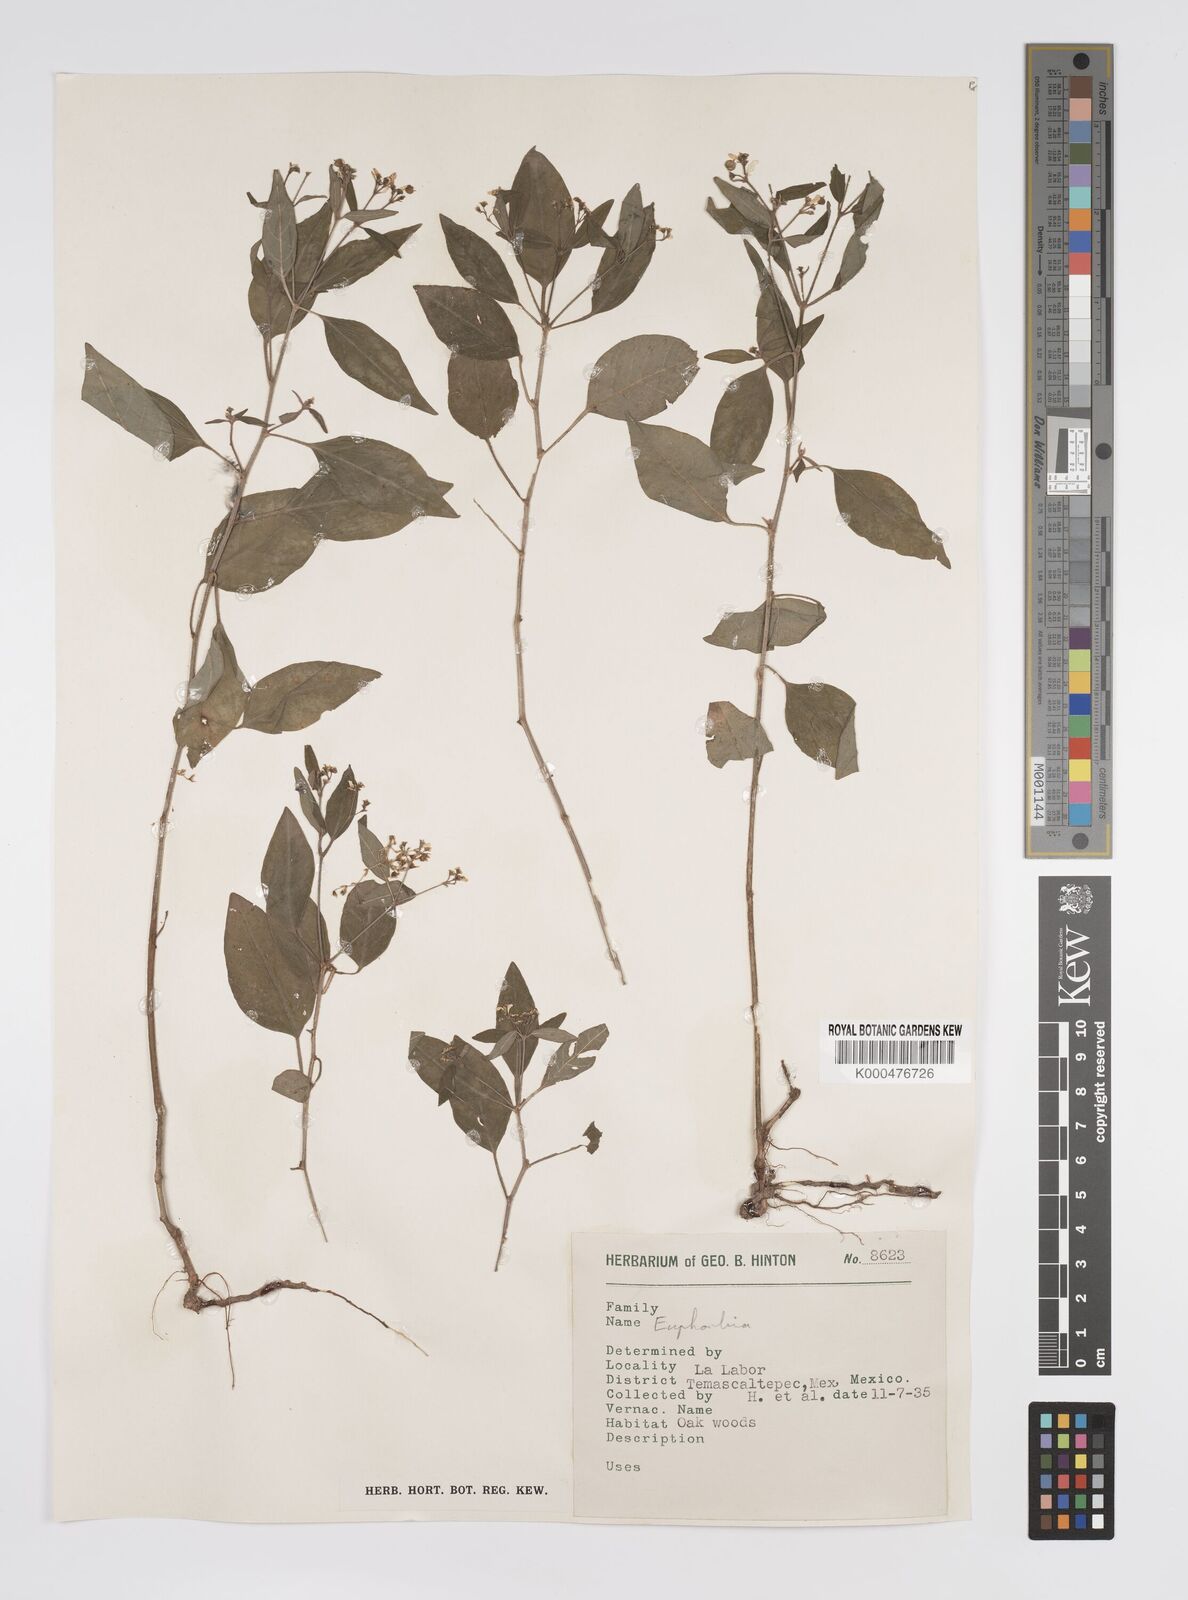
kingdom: Plantae
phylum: Tracheophyta
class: Magnoliopsida
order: Malpighiales
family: Euphorbiaceae
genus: Euphorbia
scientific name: Euphorbia
